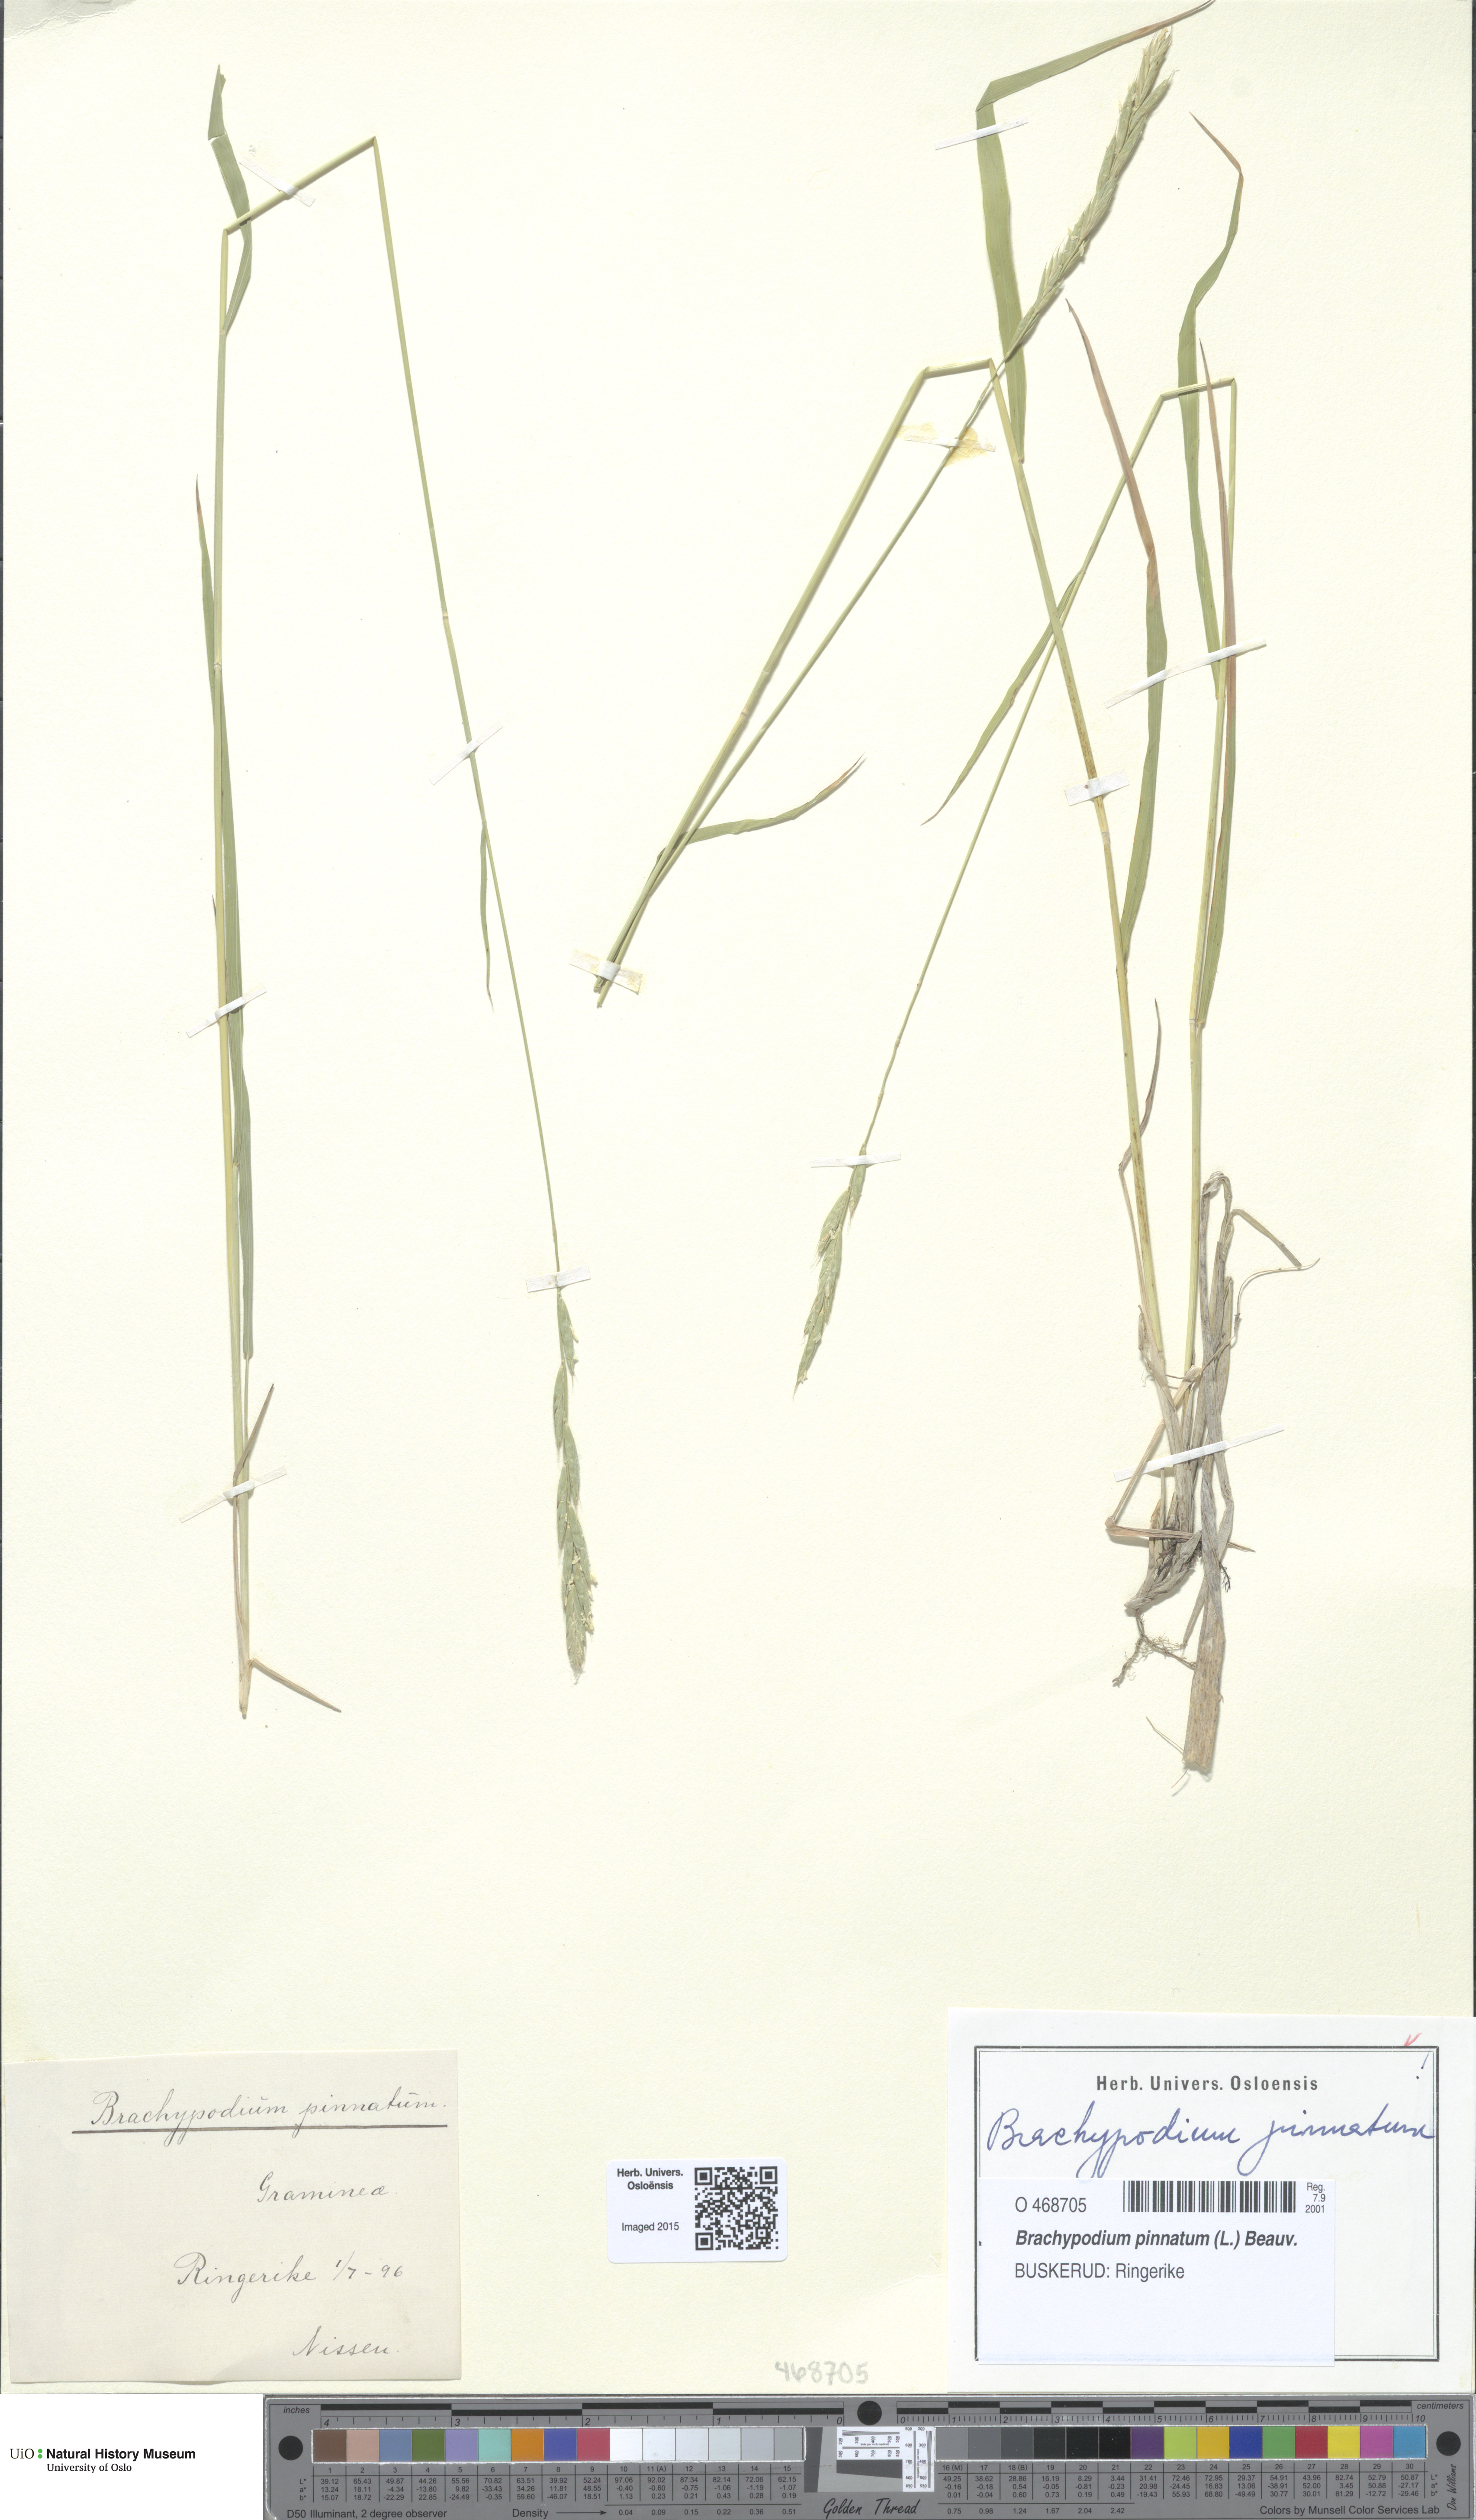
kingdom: Plantae
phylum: Tracheophyta
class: Liliopsida
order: Poales
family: Poaceae
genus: Brachypodium
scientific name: Brachypodium pinnatum
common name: Tor grass
